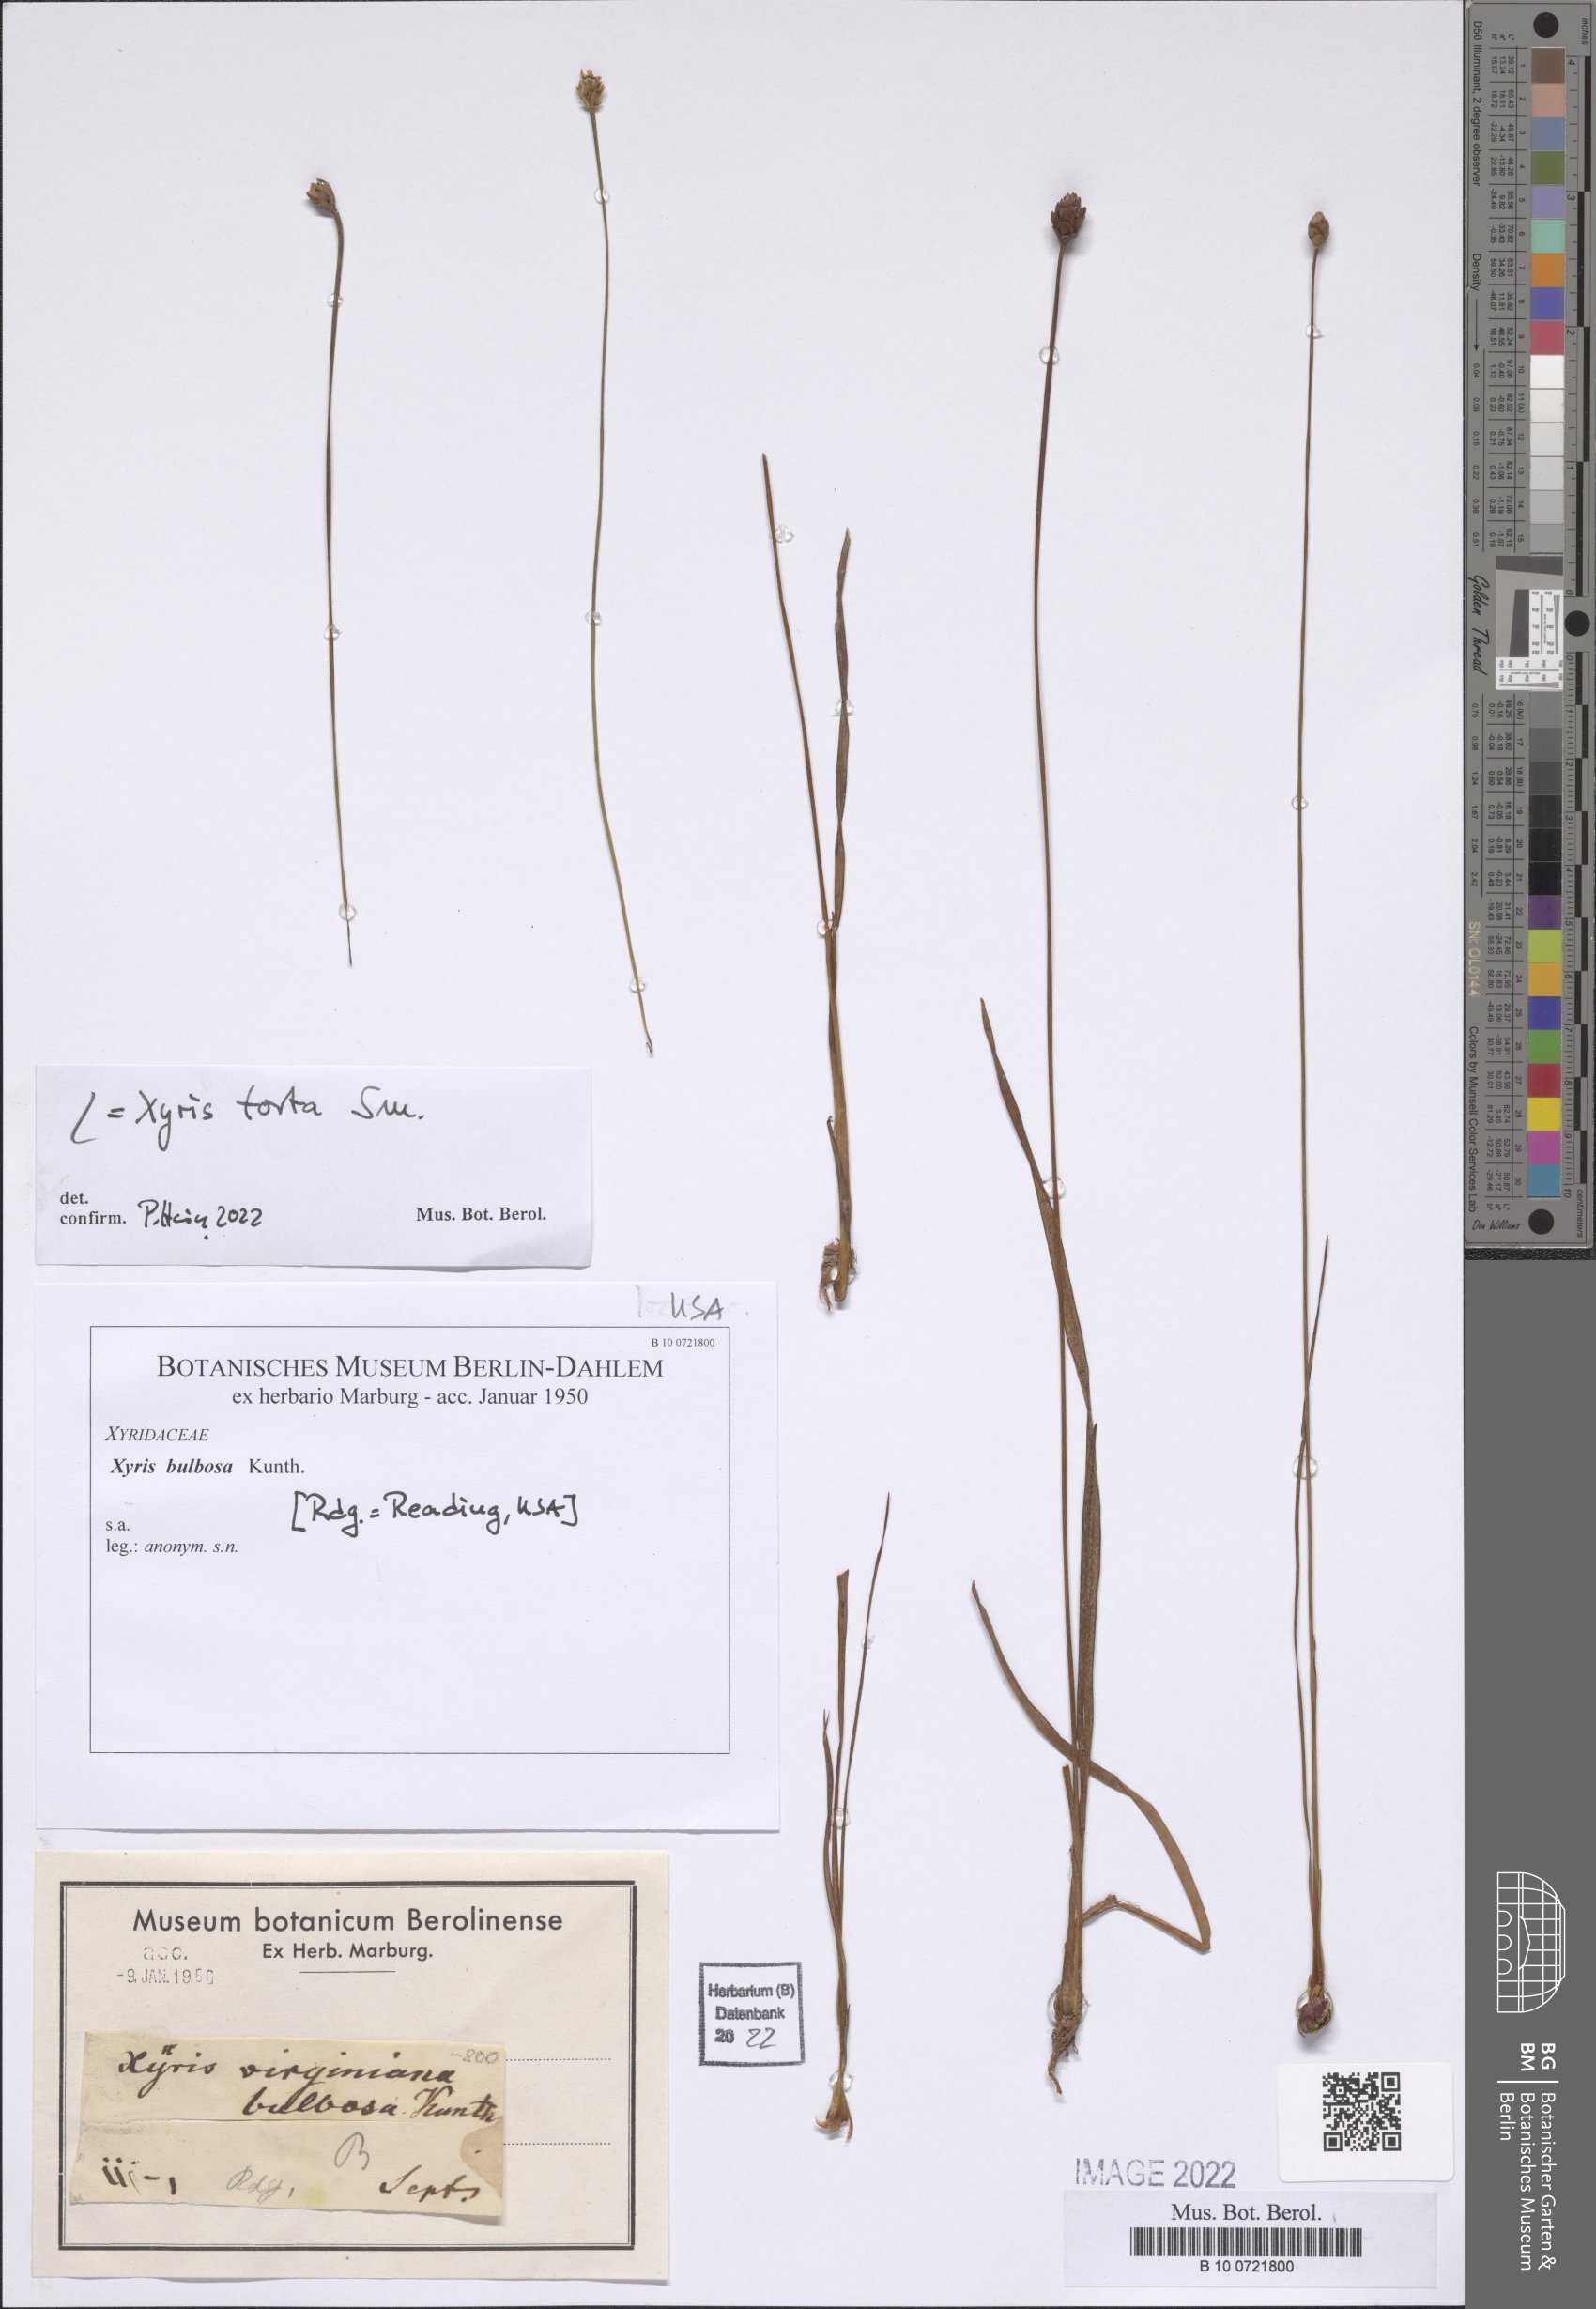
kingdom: Plantae
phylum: Tracheophyta
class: Liliopsida
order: Poales
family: Xyridaceae
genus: Xyris
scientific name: Xyris torta
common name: Common yelloweyed grass
